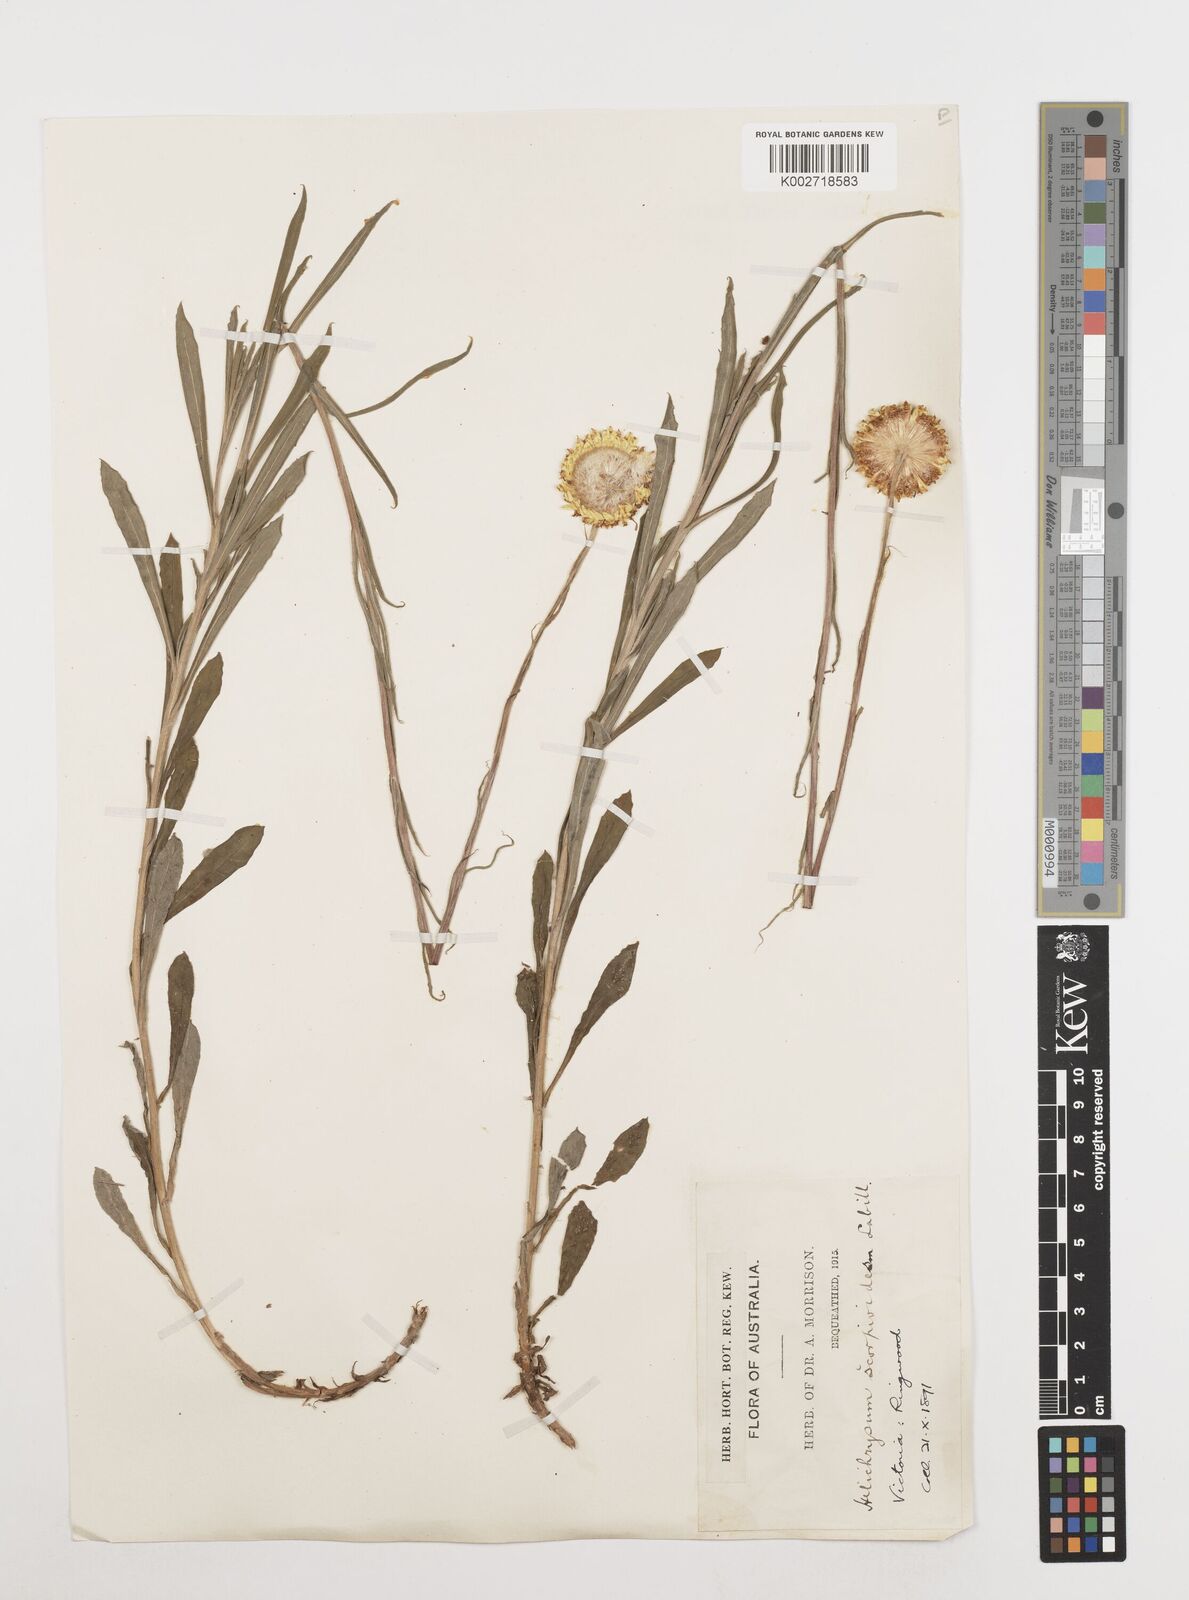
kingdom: Plantae
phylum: Tracheophyta
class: Magnoliopsida
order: Asterales
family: Asteraceae
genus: Coronidium
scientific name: Coronidium scorpioides
